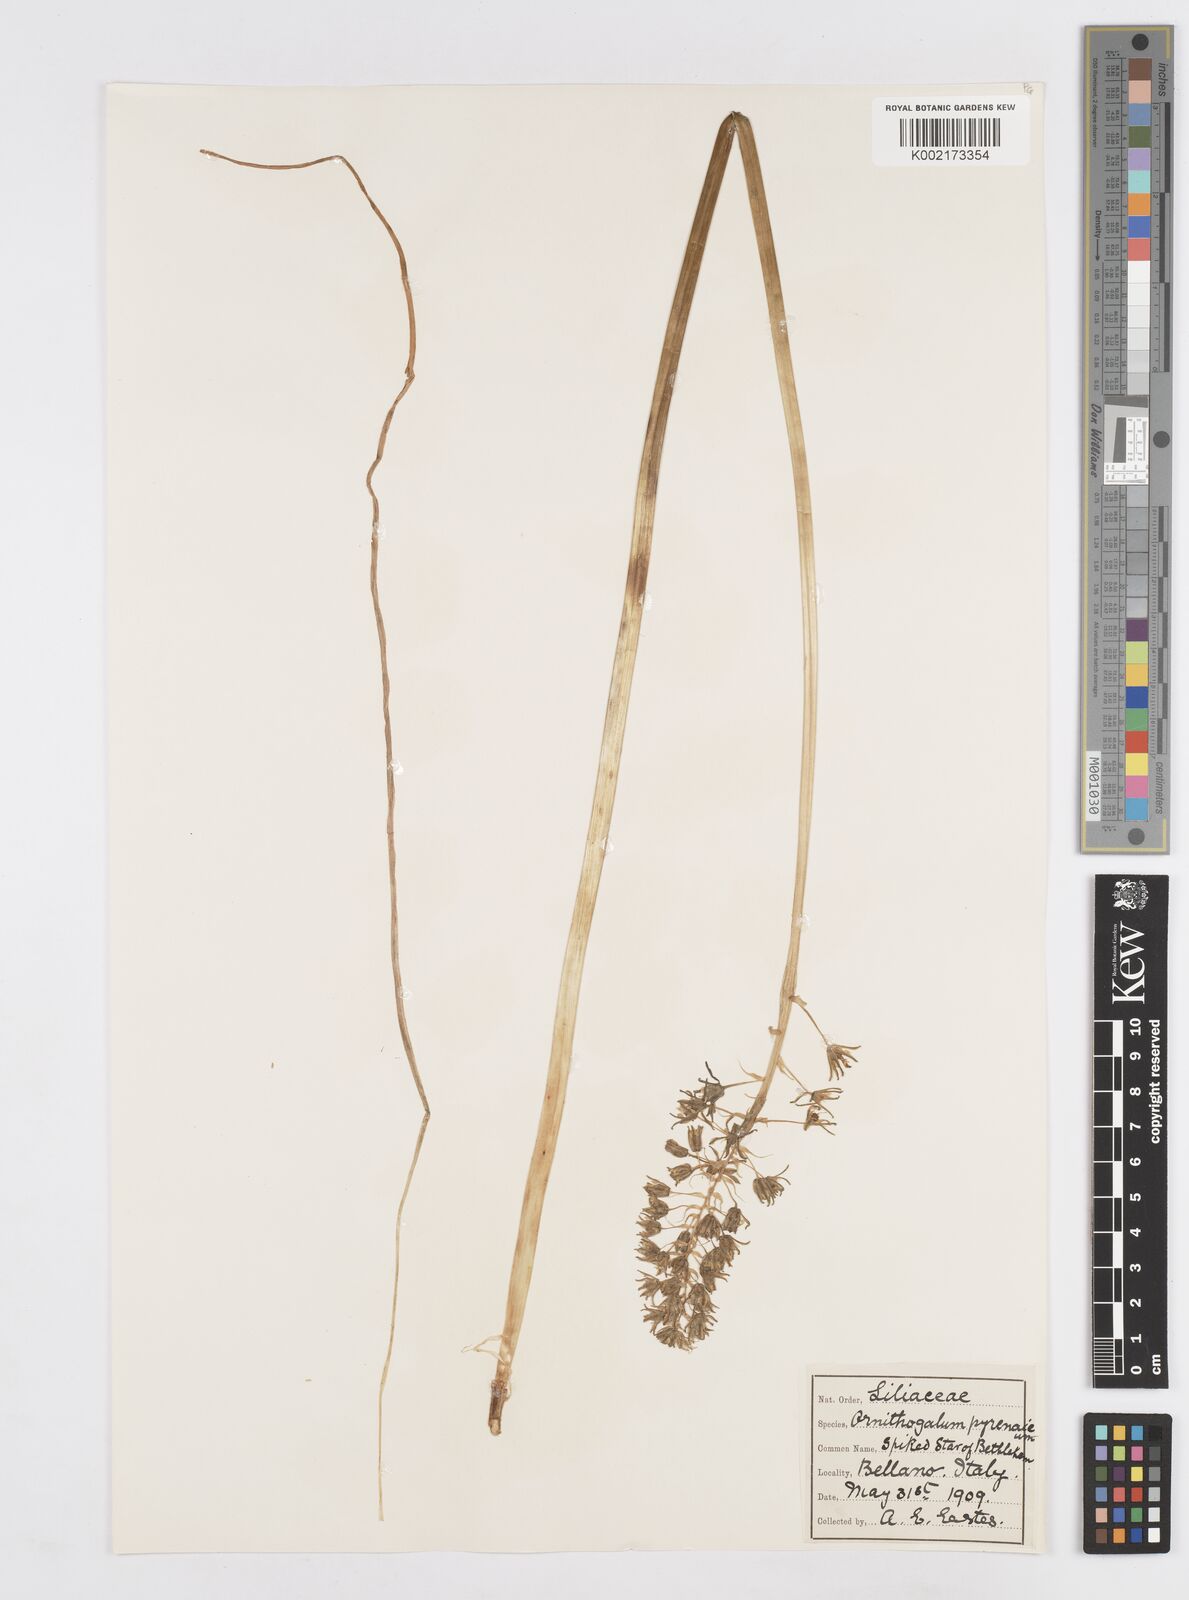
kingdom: Plantae
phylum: Tracheophyta
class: Liliopsida
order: Asparagales
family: Asparagaceae
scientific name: Asparagaceae
